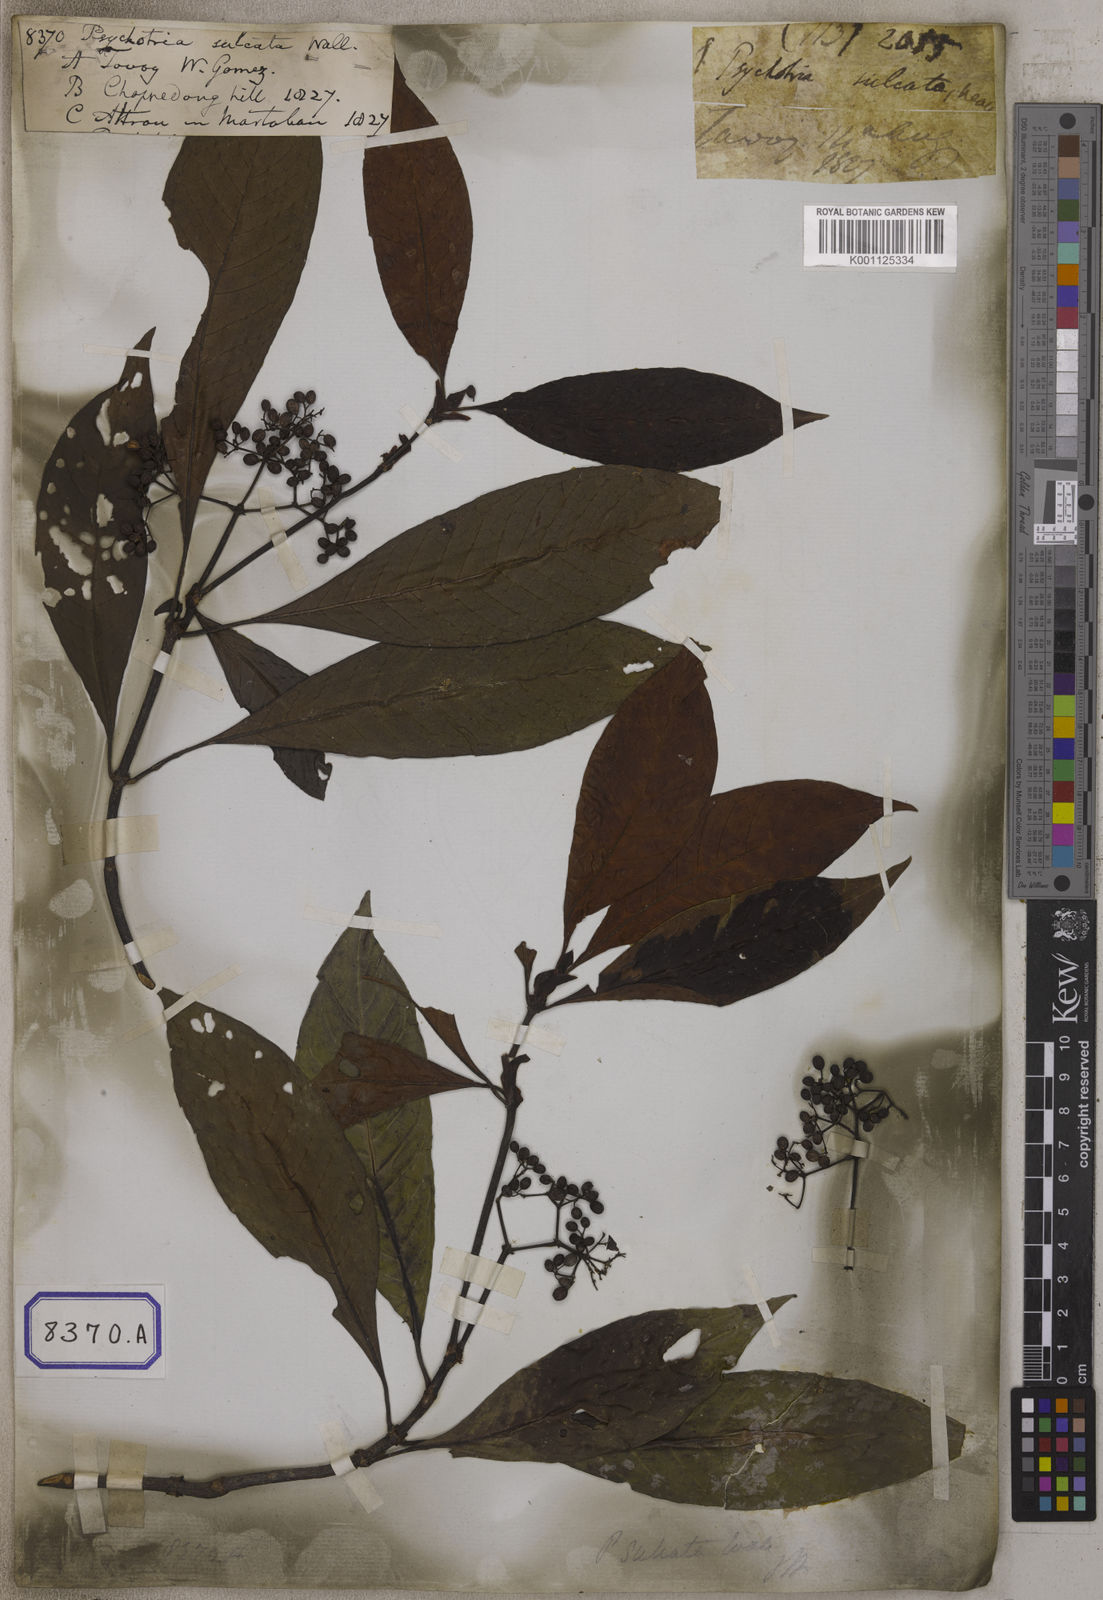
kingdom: Plantae
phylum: Tracheophyta
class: Magnoliopsida
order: Gentianales
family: Rubiaceae
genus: Psychotria
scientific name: Psychotria
